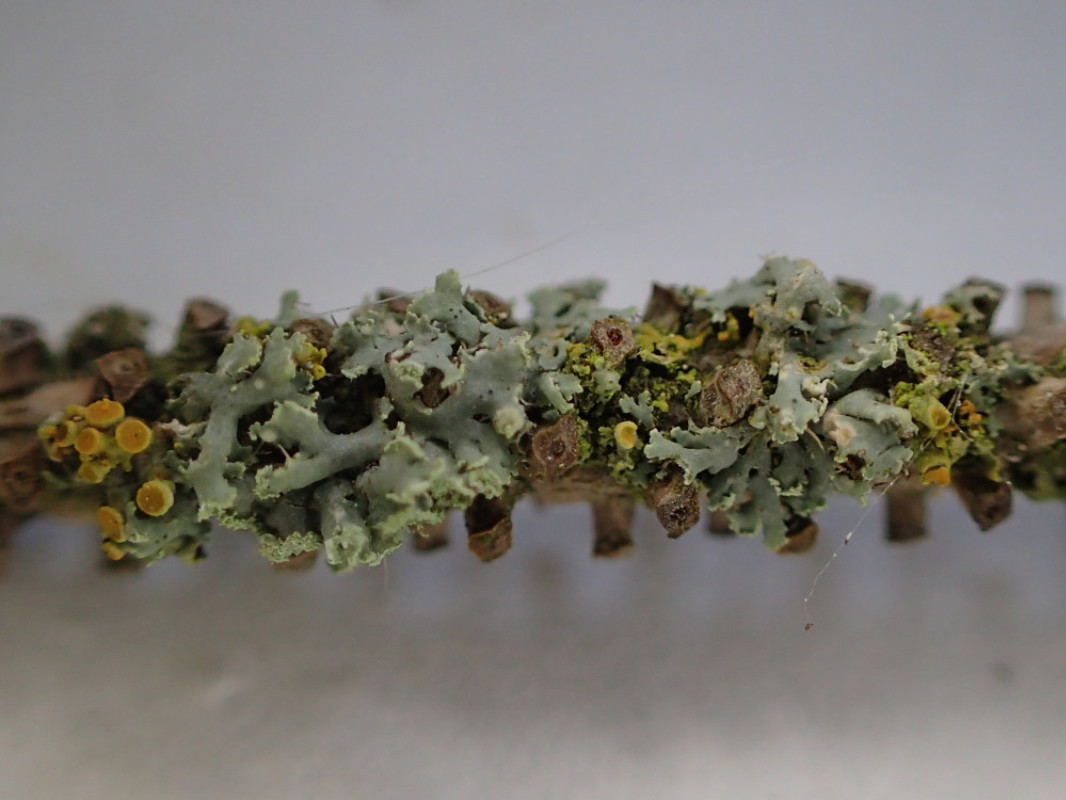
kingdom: Fungi
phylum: Ascomycota
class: Lecanoromycetes
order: Teloschistales
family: Teloschistaceae
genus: Polycauliona
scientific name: Polycauliona polycarpa
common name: mangefrugtet orangelav
